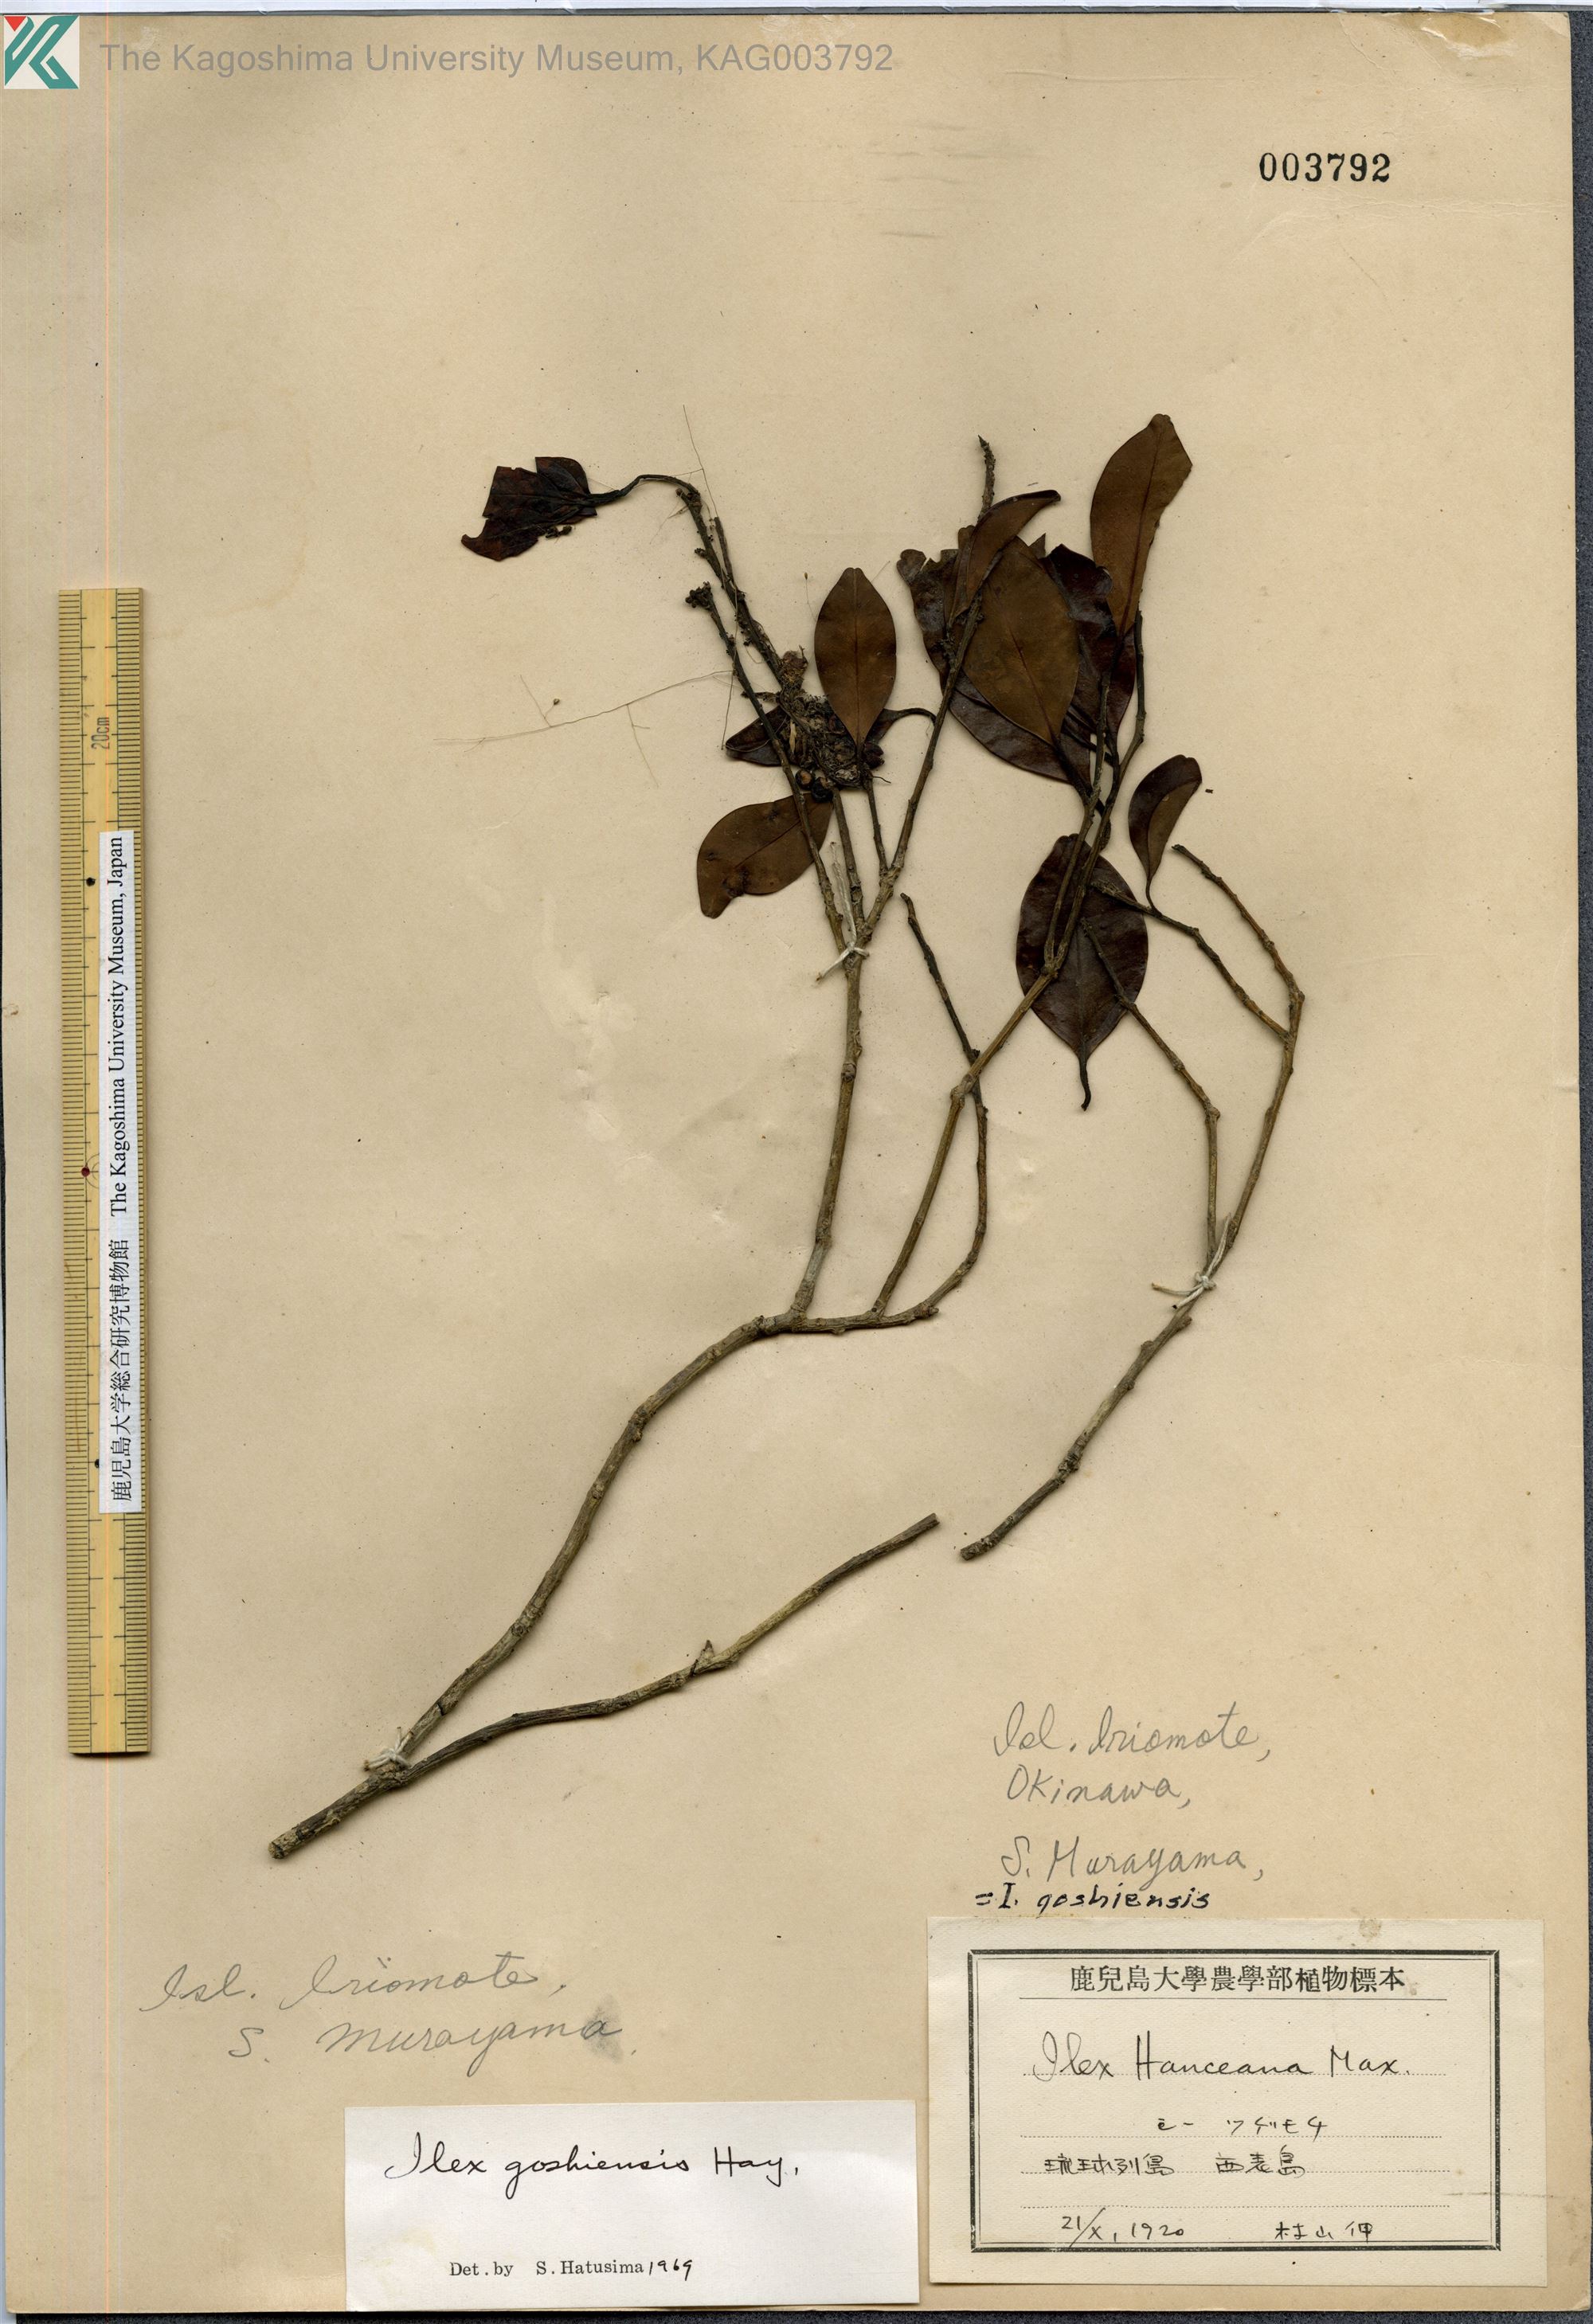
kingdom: Plantae
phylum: Tracheophyta
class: Magnoliopsida
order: Aquifoliales
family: Aquifoliaceae
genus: Ilex
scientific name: Ilex goshiensis
